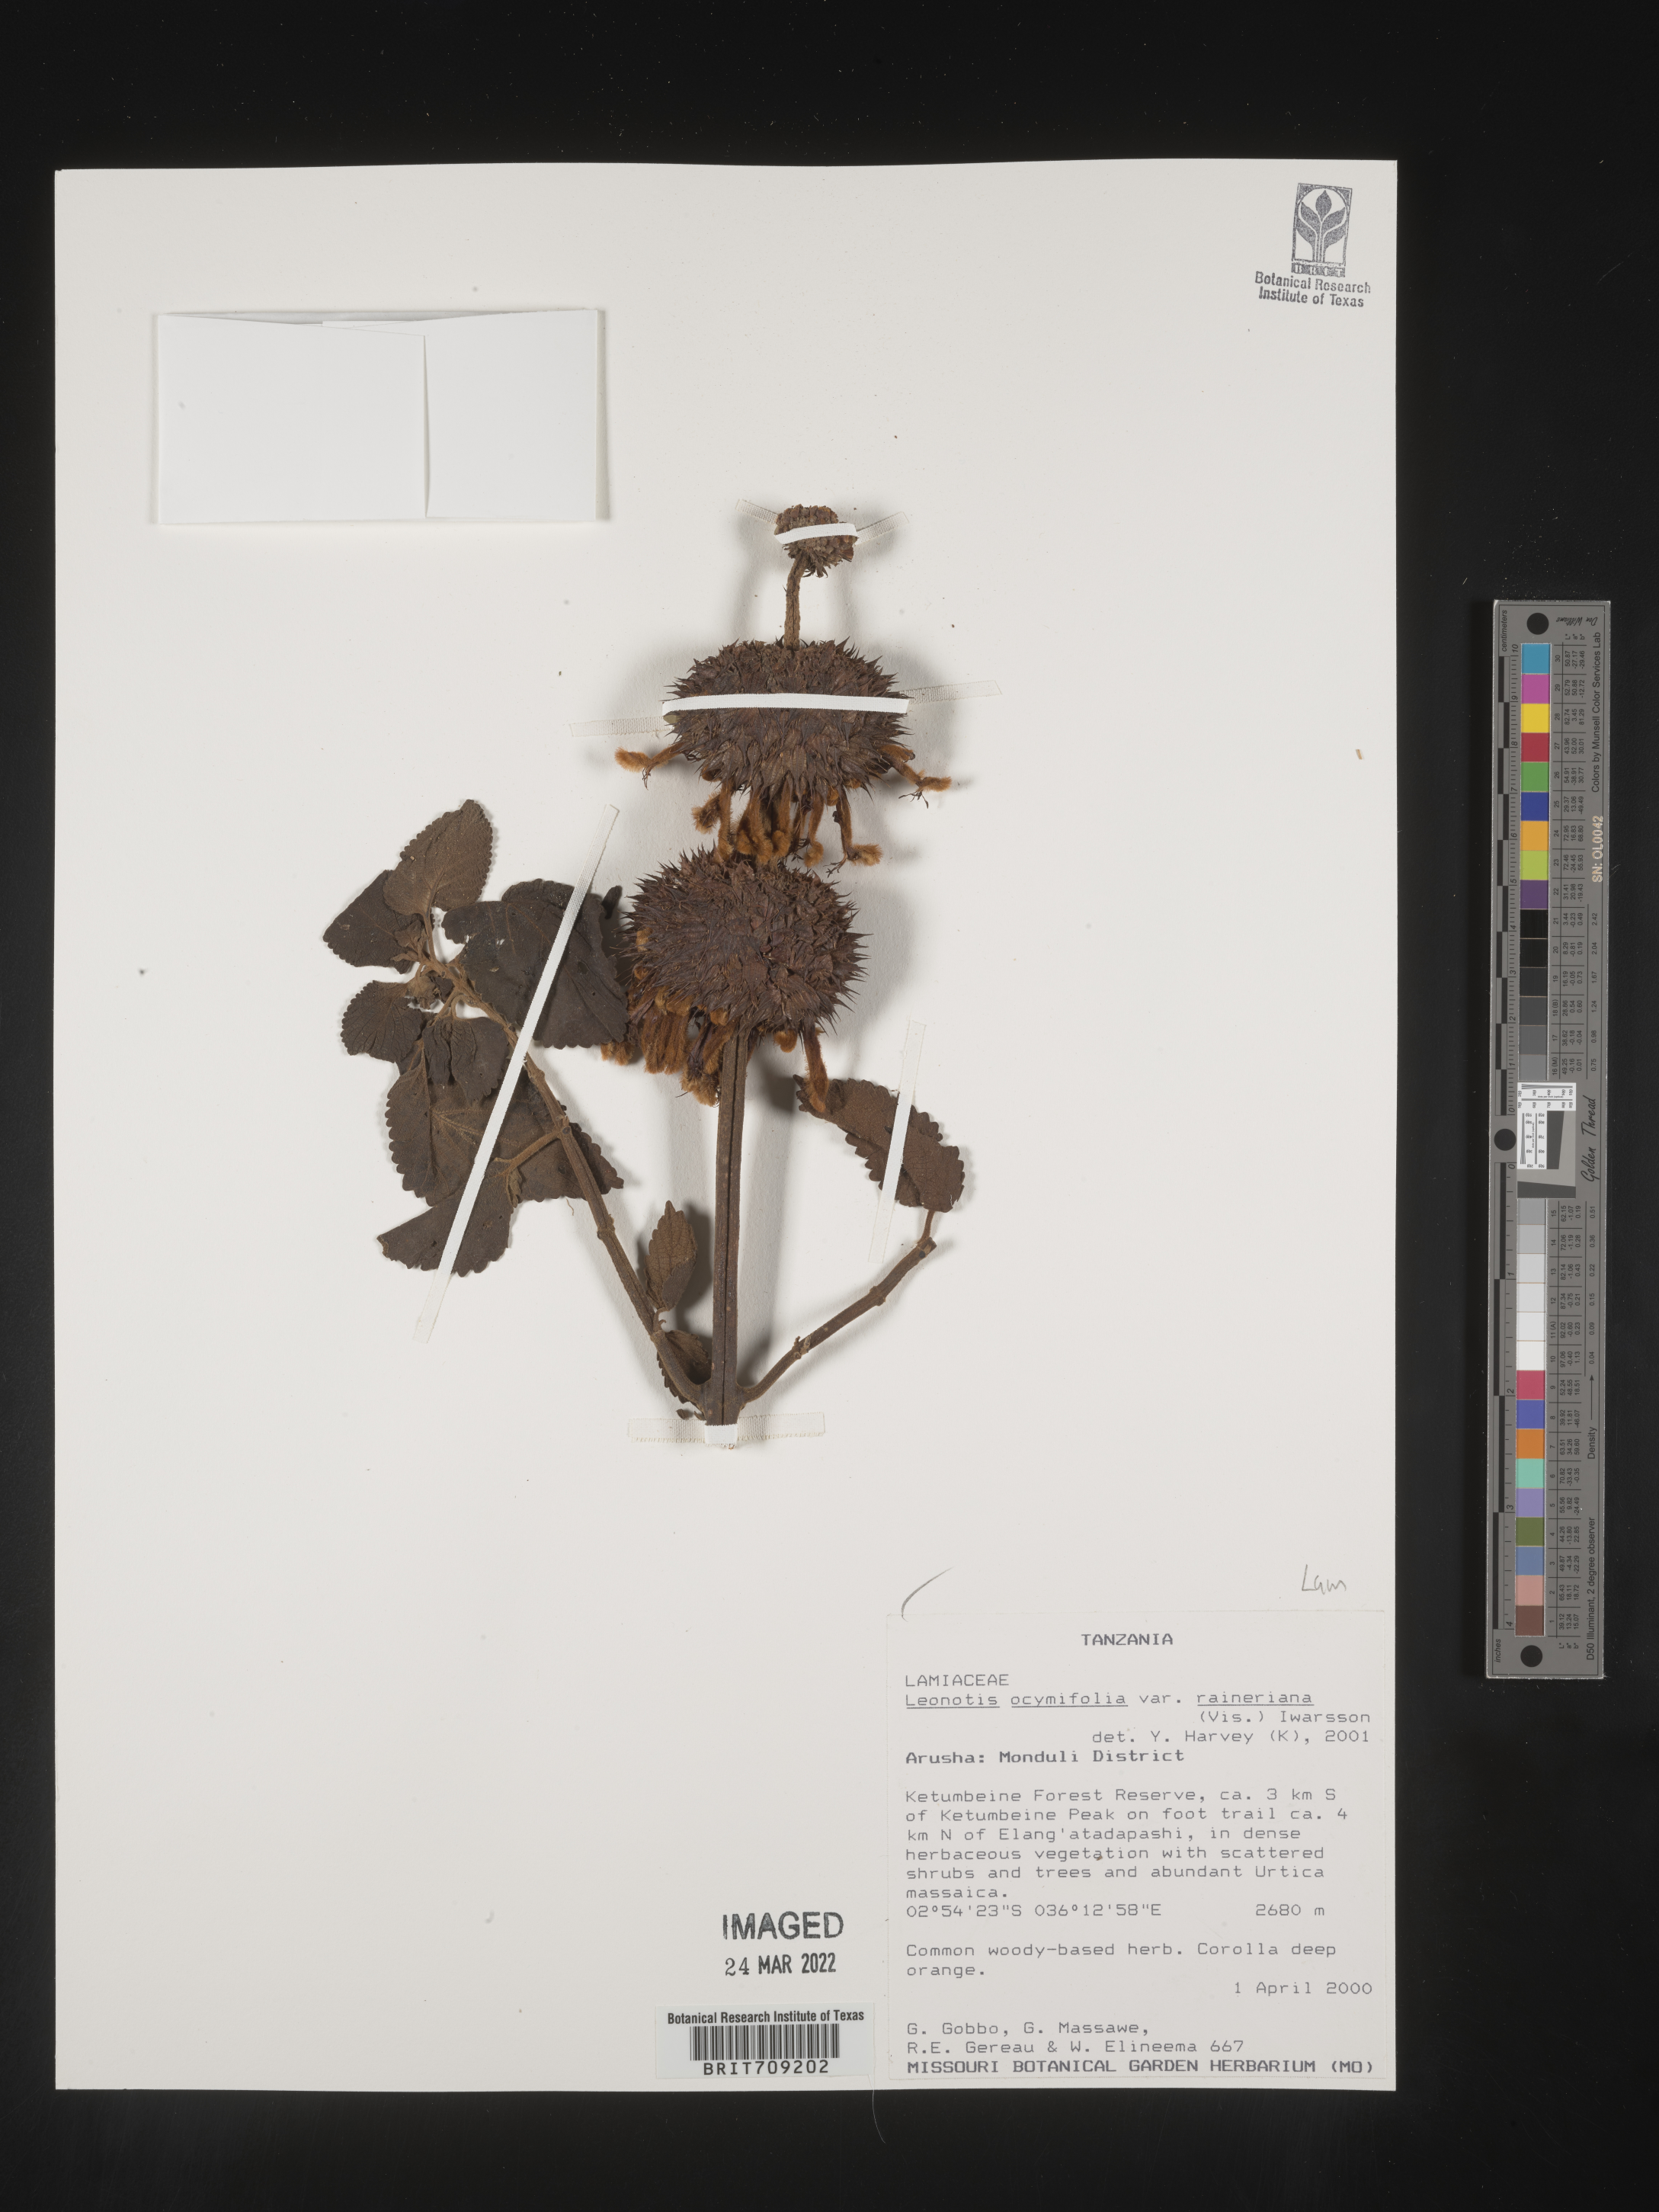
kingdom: Plantae
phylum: Tracheophyta
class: Magnoliopsida
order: Lamiales
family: Lamiaceae
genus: Leonotis
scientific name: Leonotis
